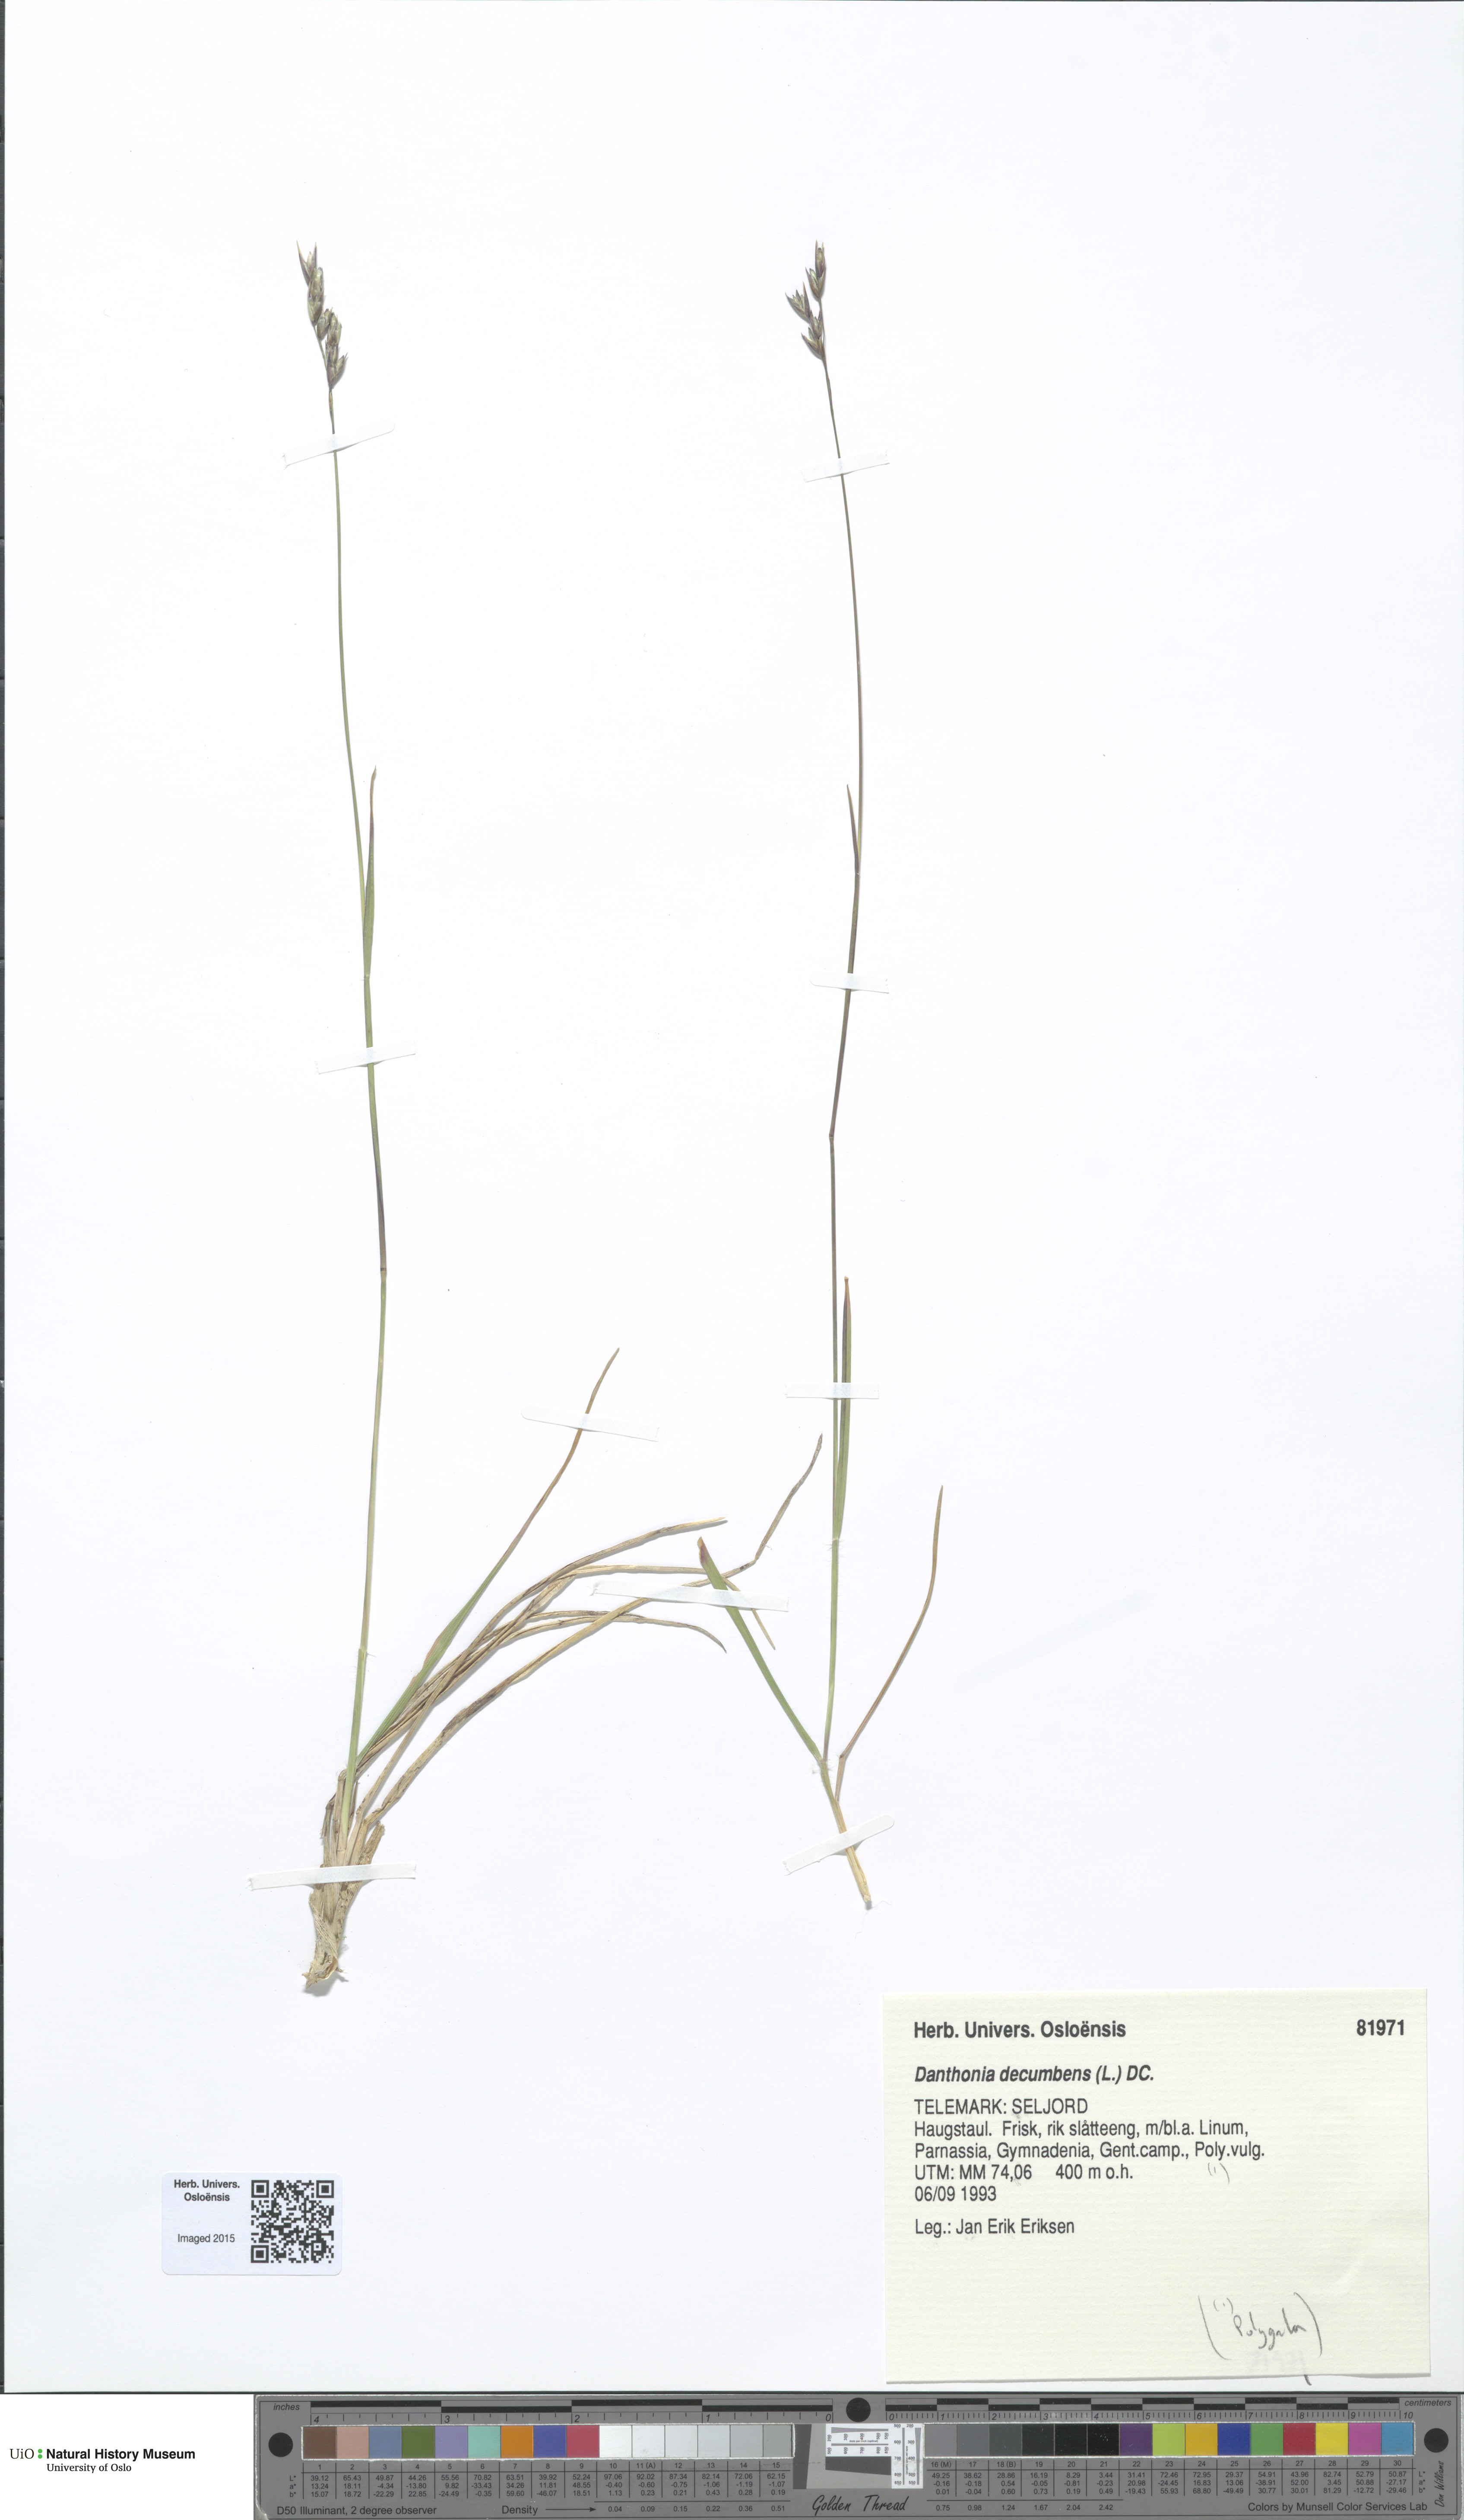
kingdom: Plantae
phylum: Tracheophyta
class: Liliopsida
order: Poales
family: Poaceae
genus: Danthonia
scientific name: Danthonia decumbens
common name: Common heathgrass
